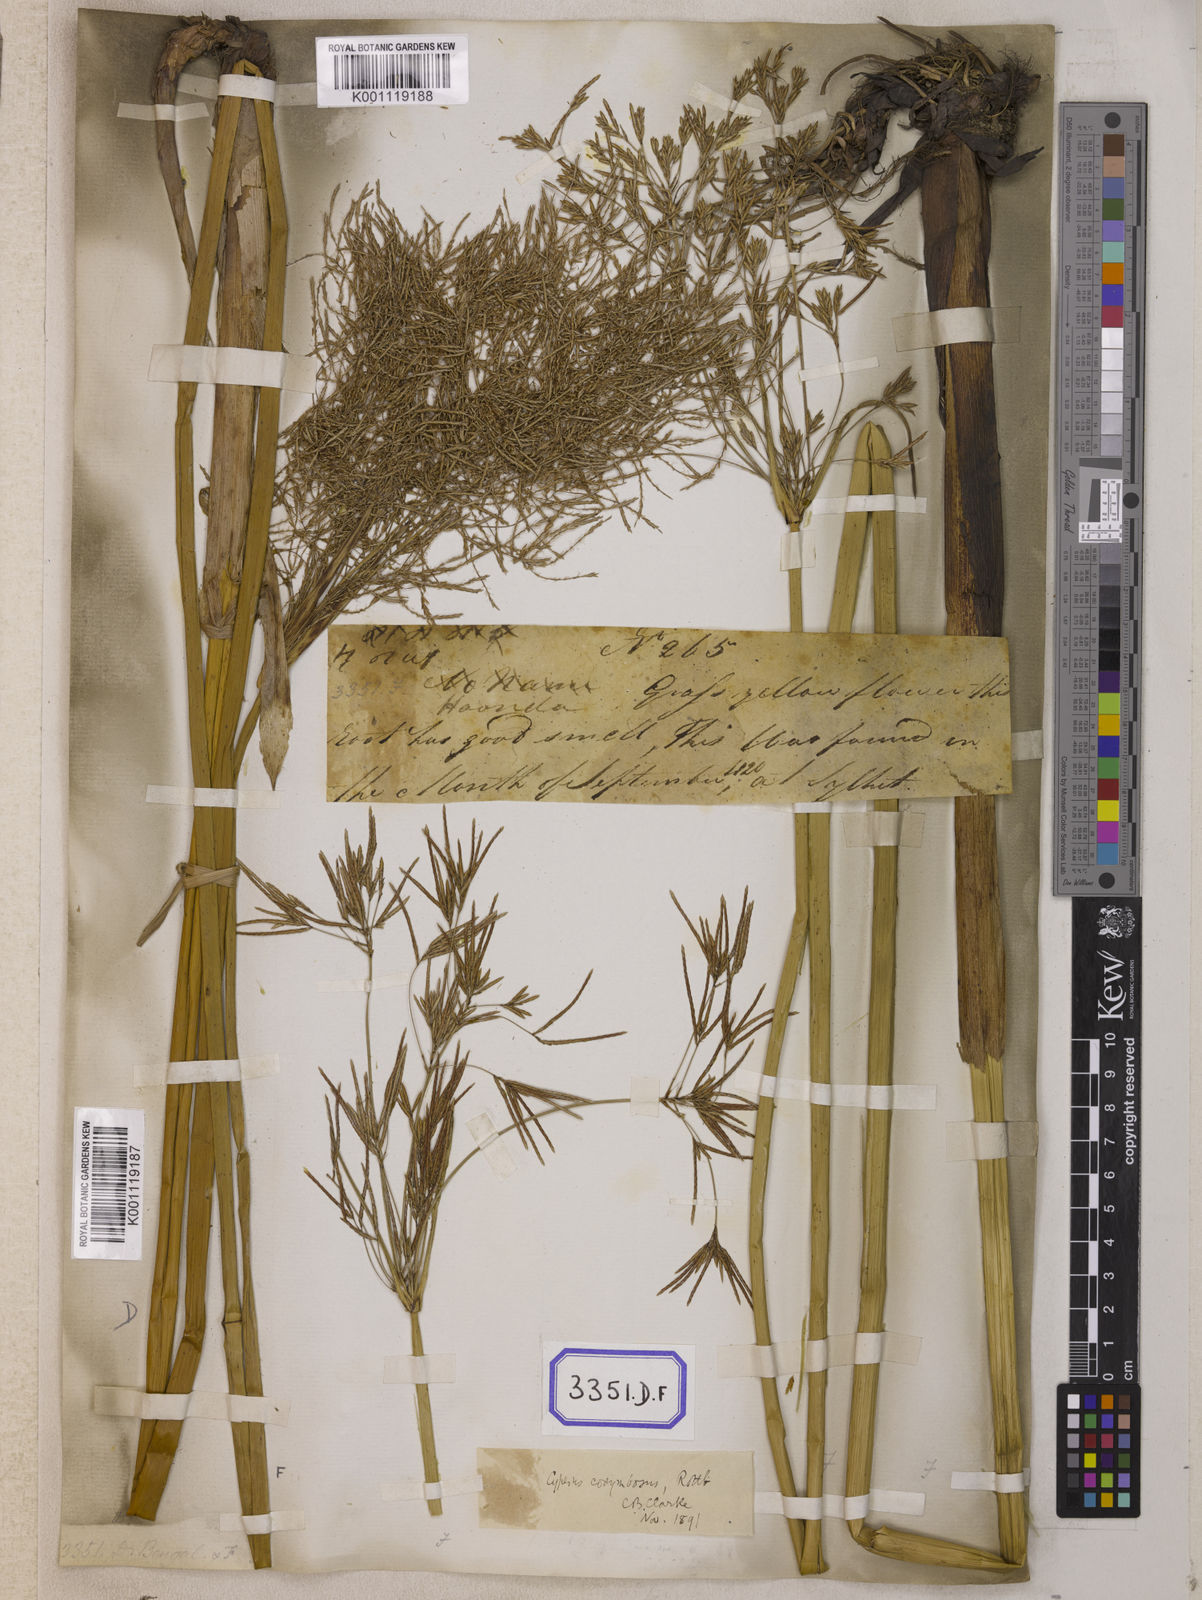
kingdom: Plantae
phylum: Tracheophyta
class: Liliopsida
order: Poales
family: Cyperaceae
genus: Cyperus
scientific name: Cyperus
